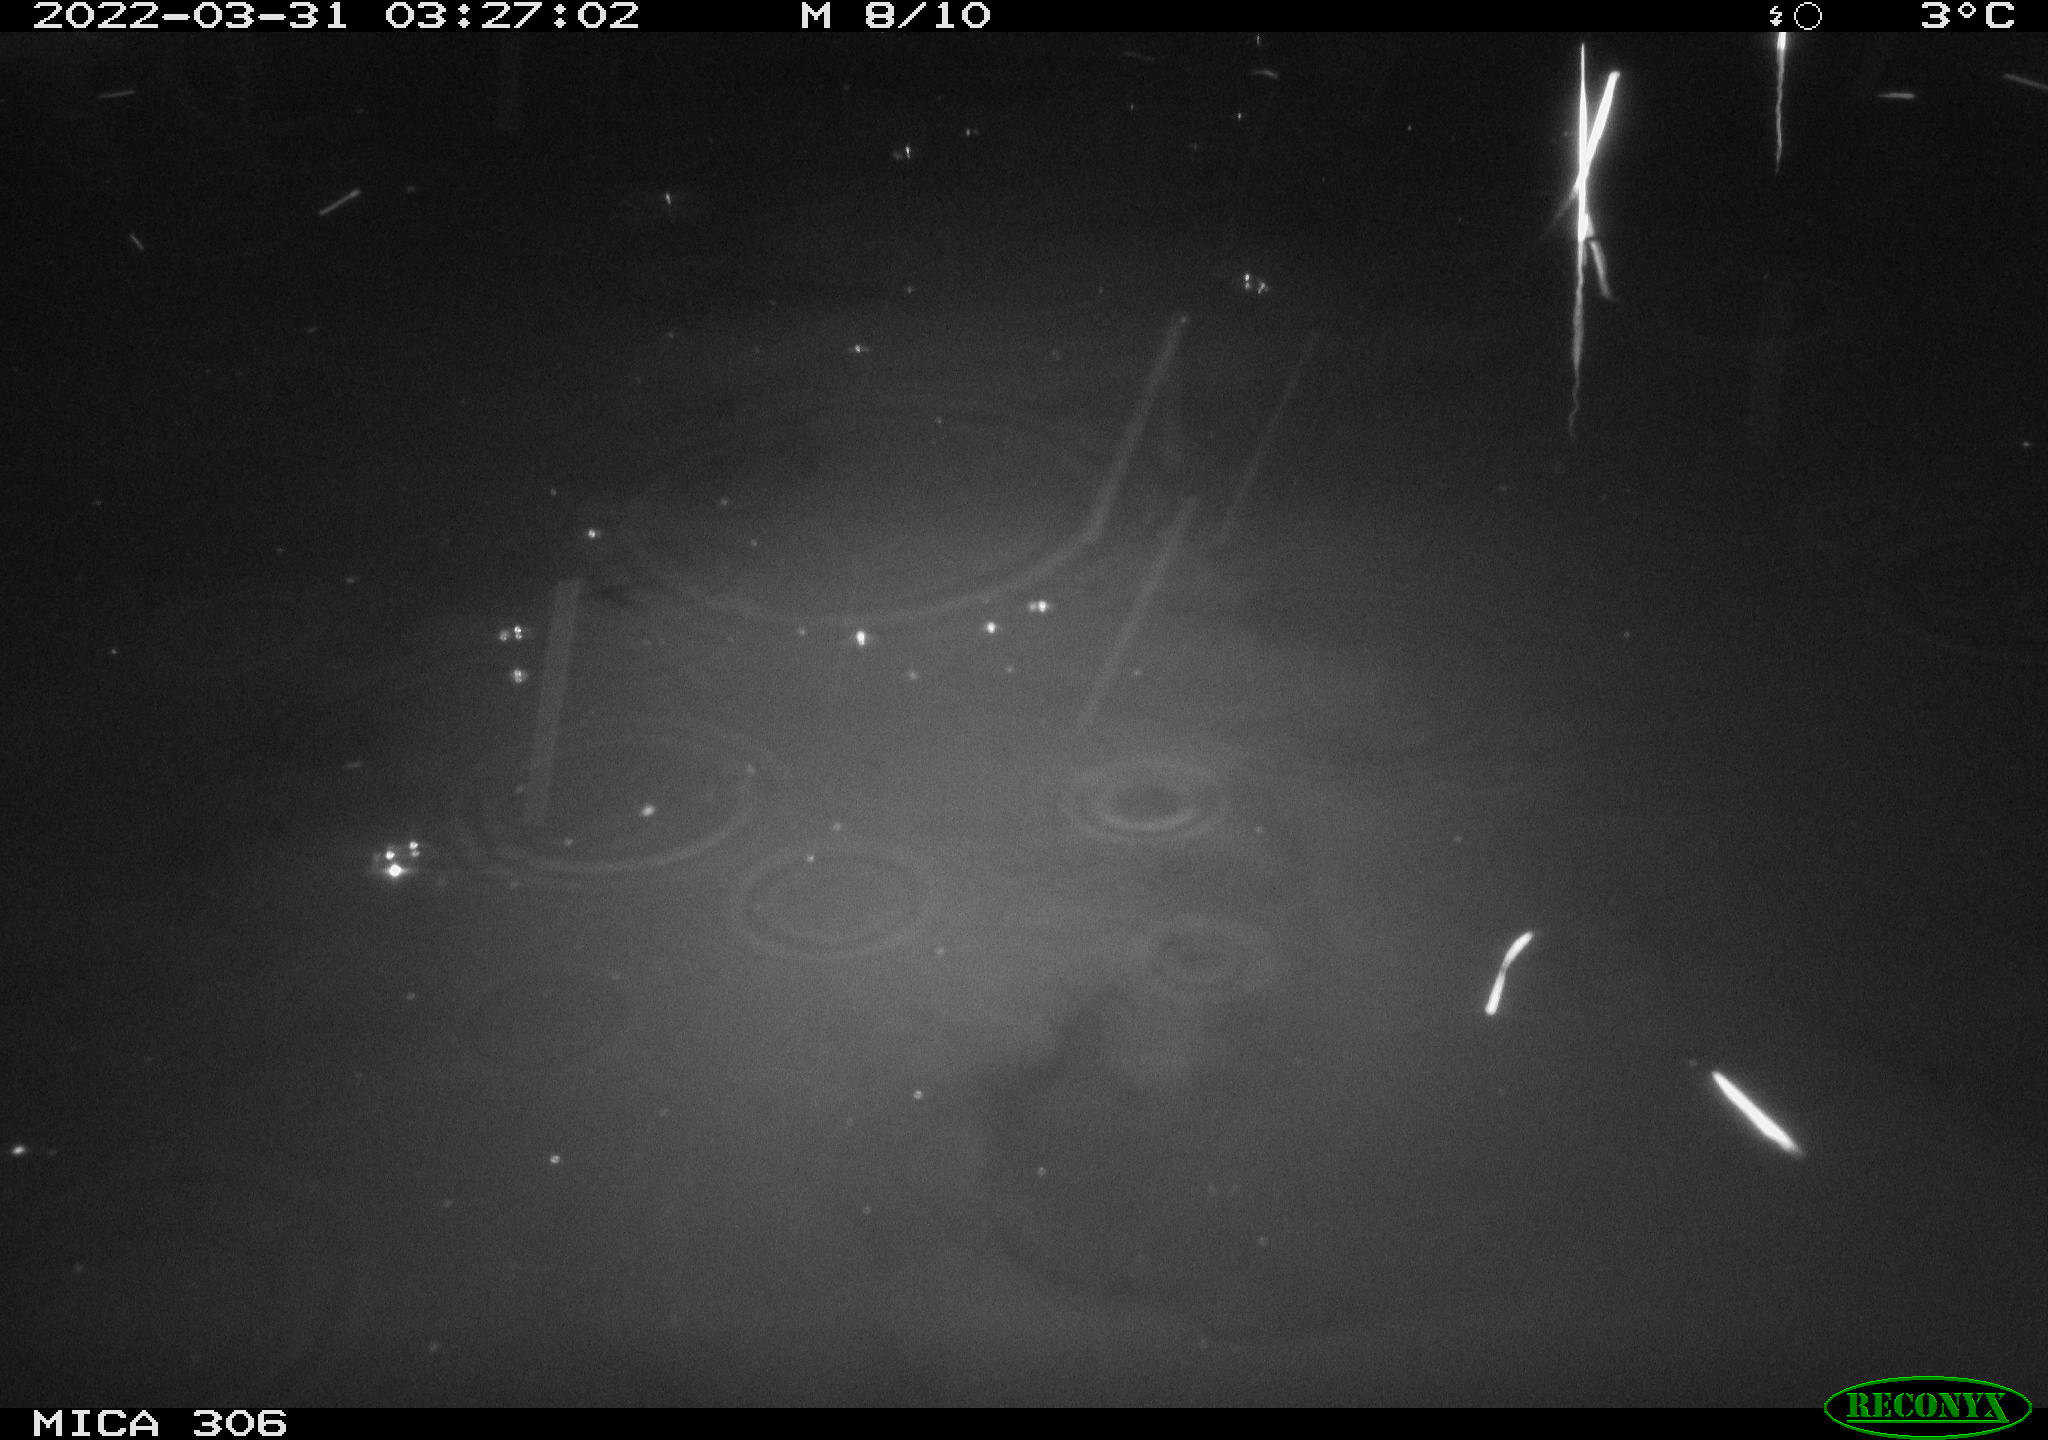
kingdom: Animalia
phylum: Chordata
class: Mammalia
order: Rodentia
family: Cricetidae
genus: Ondatra
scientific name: Ondatra zibethicus
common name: Muskrat
